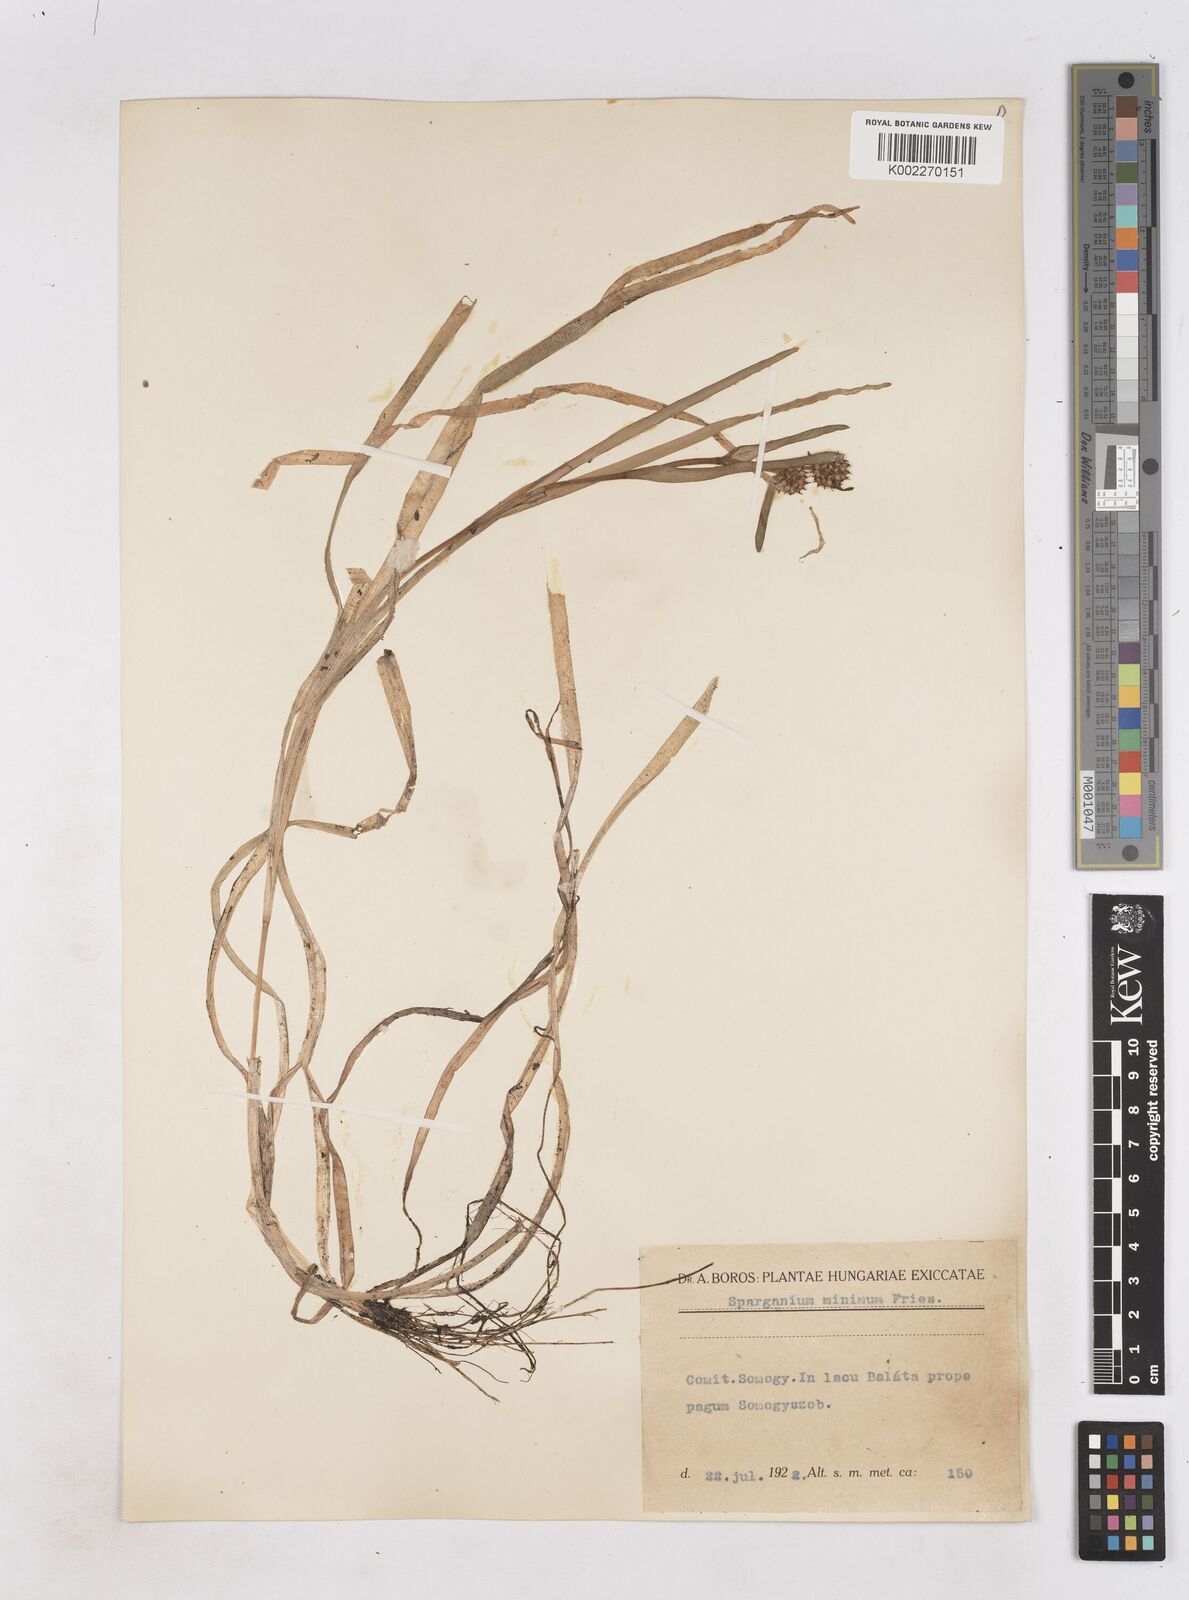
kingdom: Plantae
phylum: Tracheophyta
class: Liliopsida
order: Poales
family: Typhaceae
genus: Sparganium
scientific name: Sparganium natans
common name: Least bur-reed
